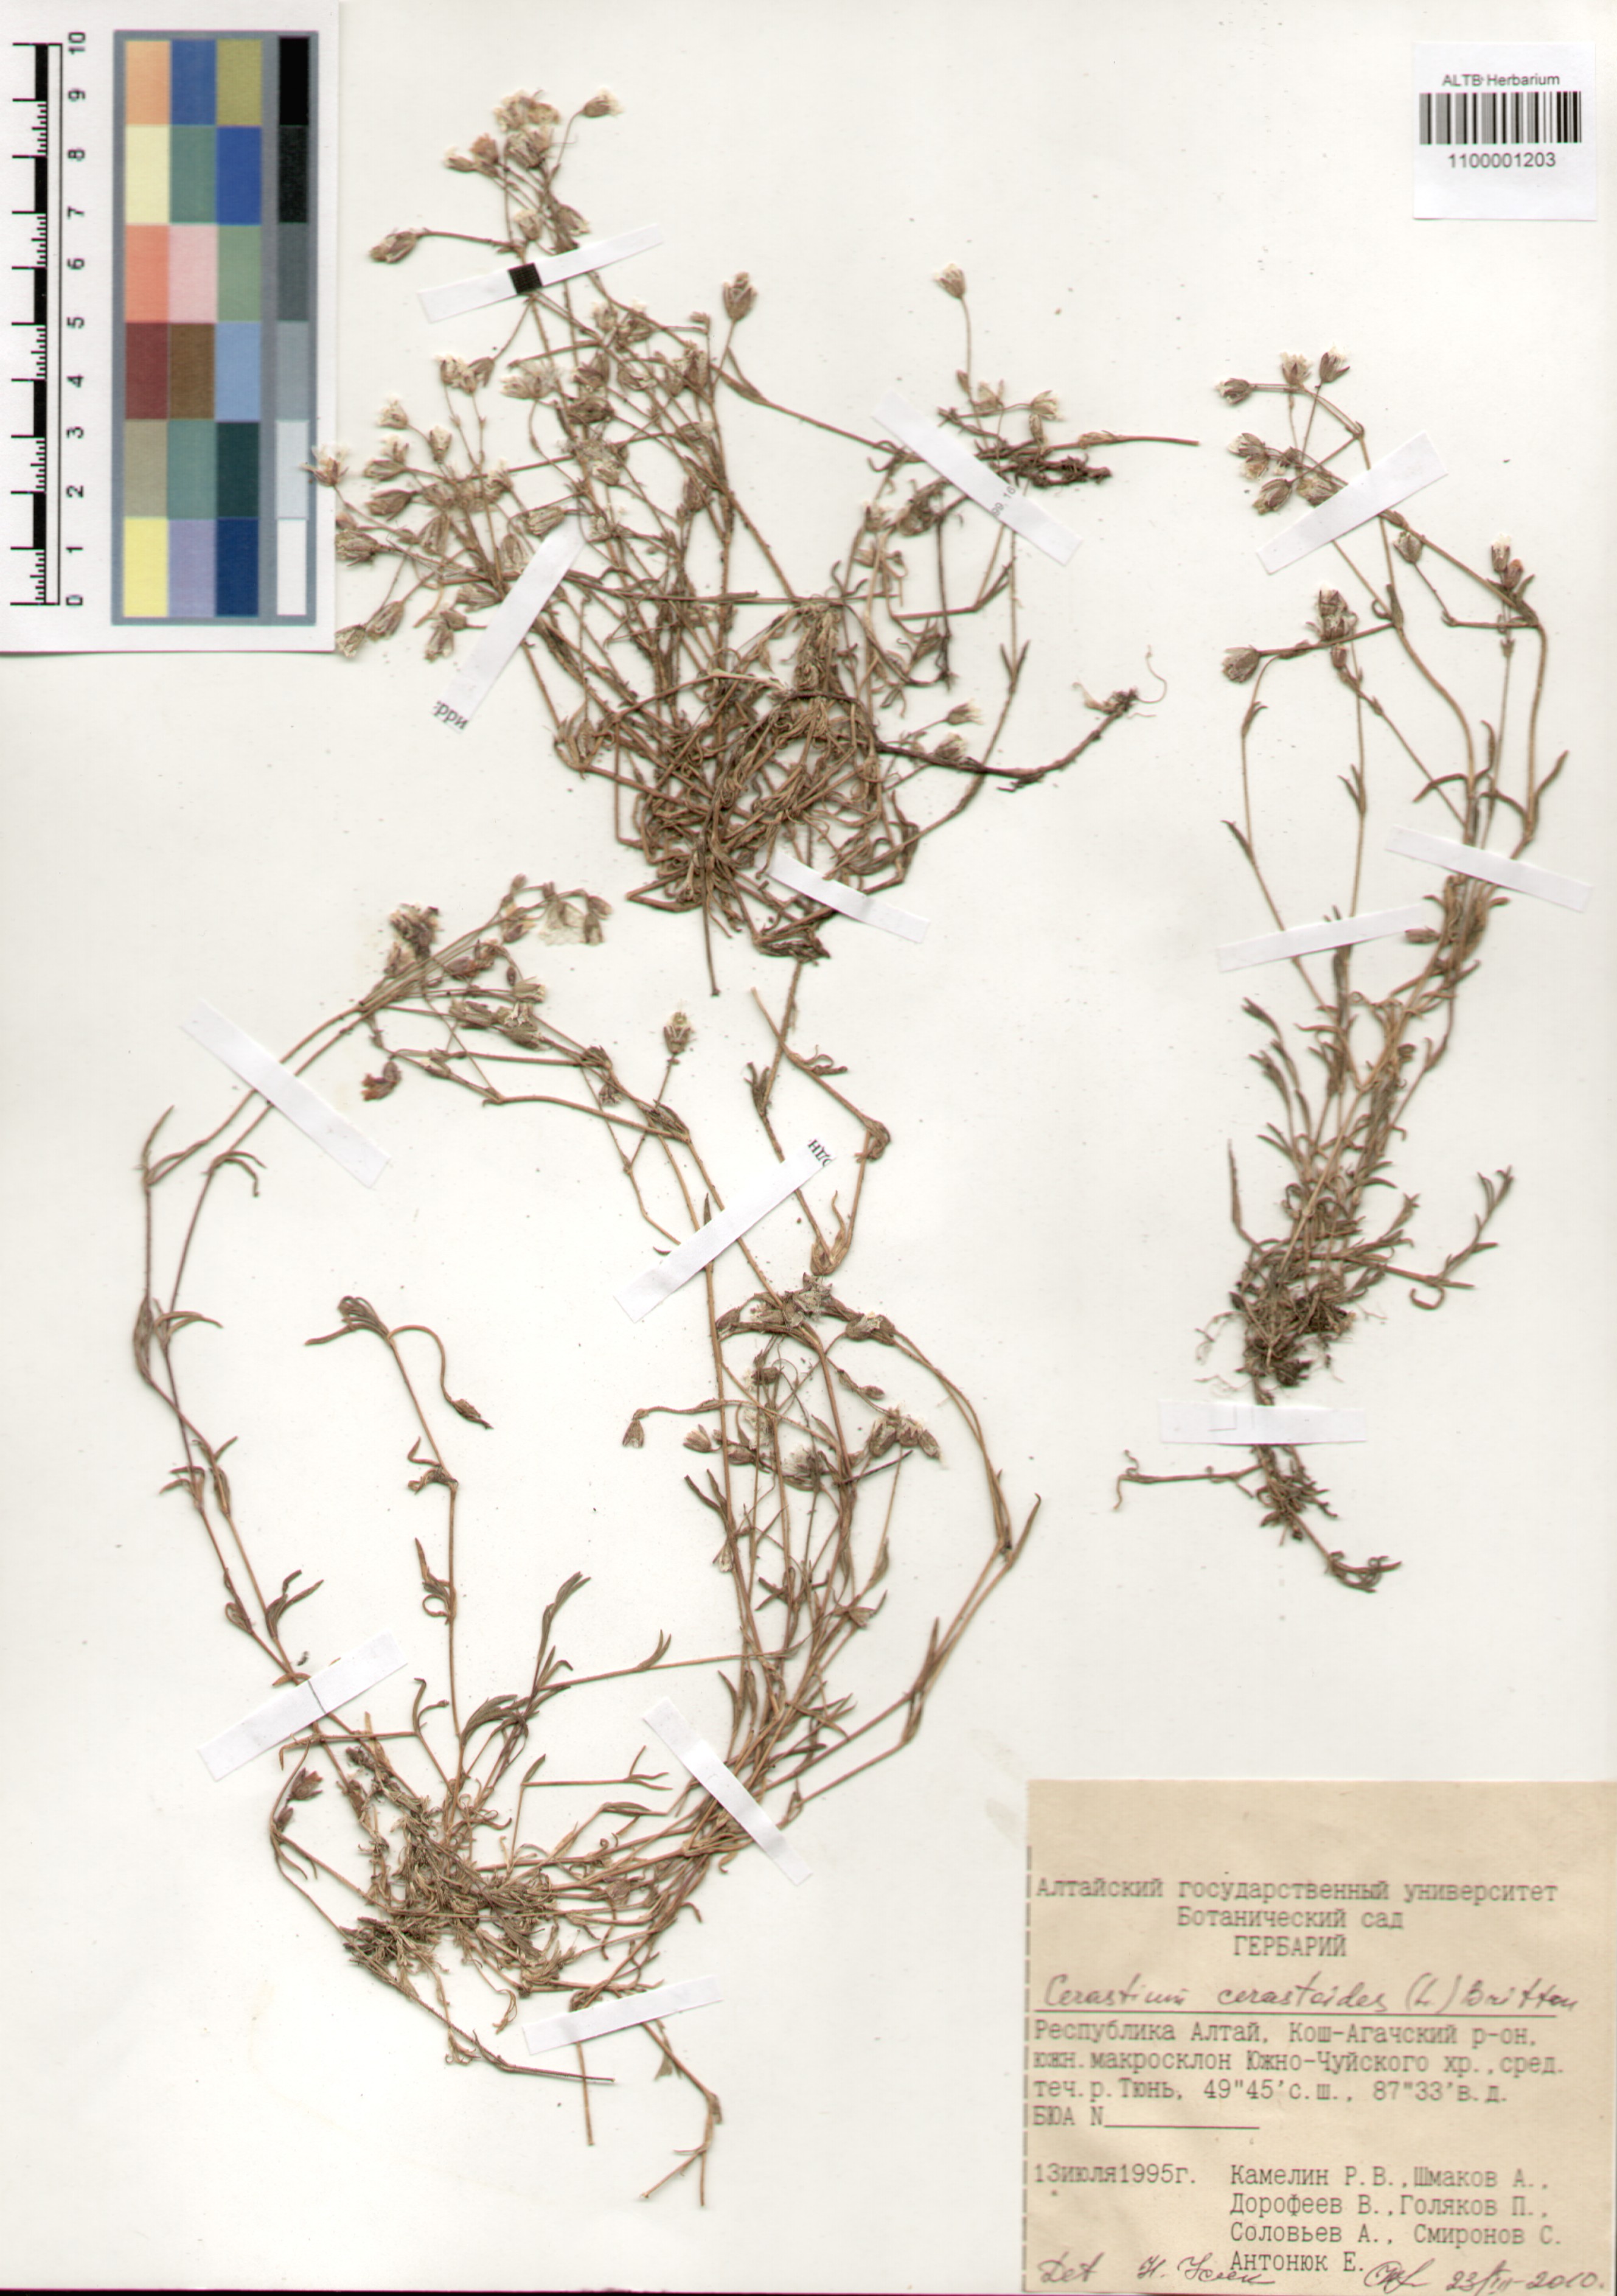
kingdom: Plantae
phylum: Tracheophyta
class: Magnoliopsida
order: Caryophyllales
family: Caryophyllaceae
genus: Dichodon
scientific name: Dichodon cerastoides
